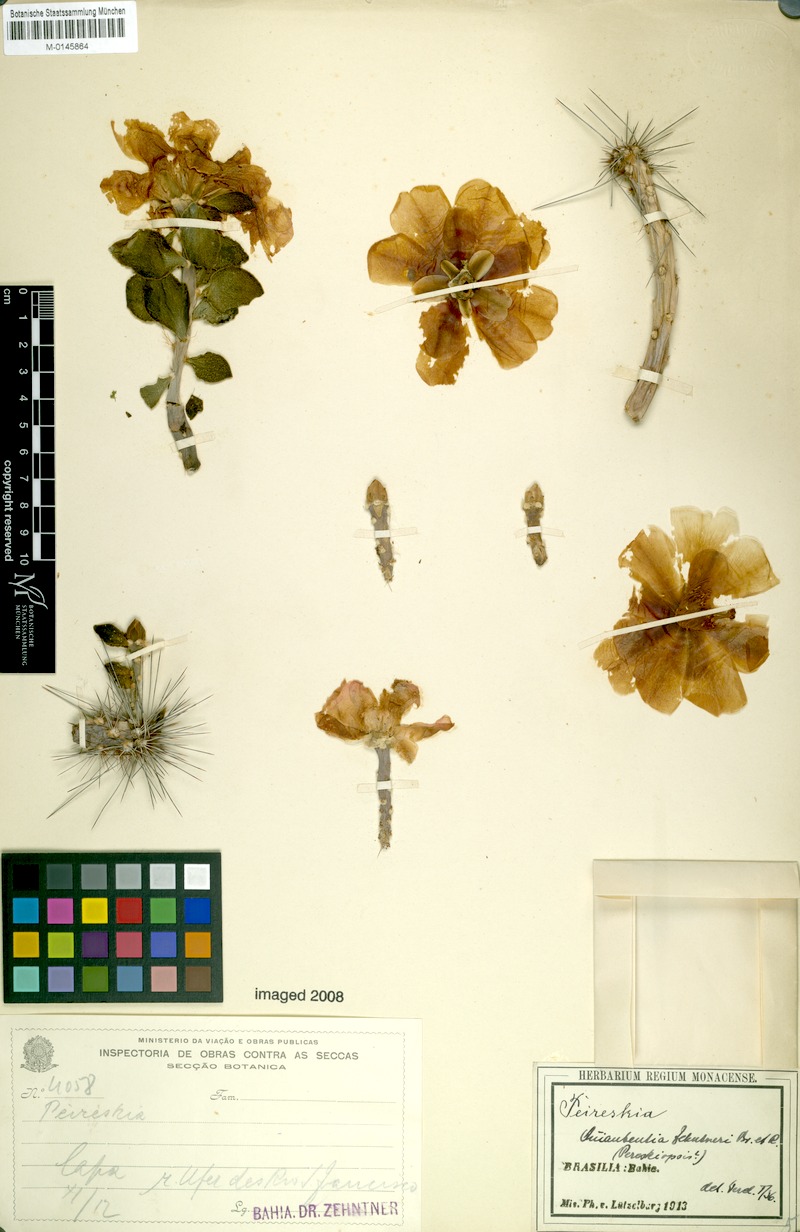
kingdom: Plantae
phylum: Tracheophyta
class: Magnoliopsida
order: Caryophyllales
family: Cactaceae
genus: Quiabentia
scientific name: Quiabentia zehntneri
